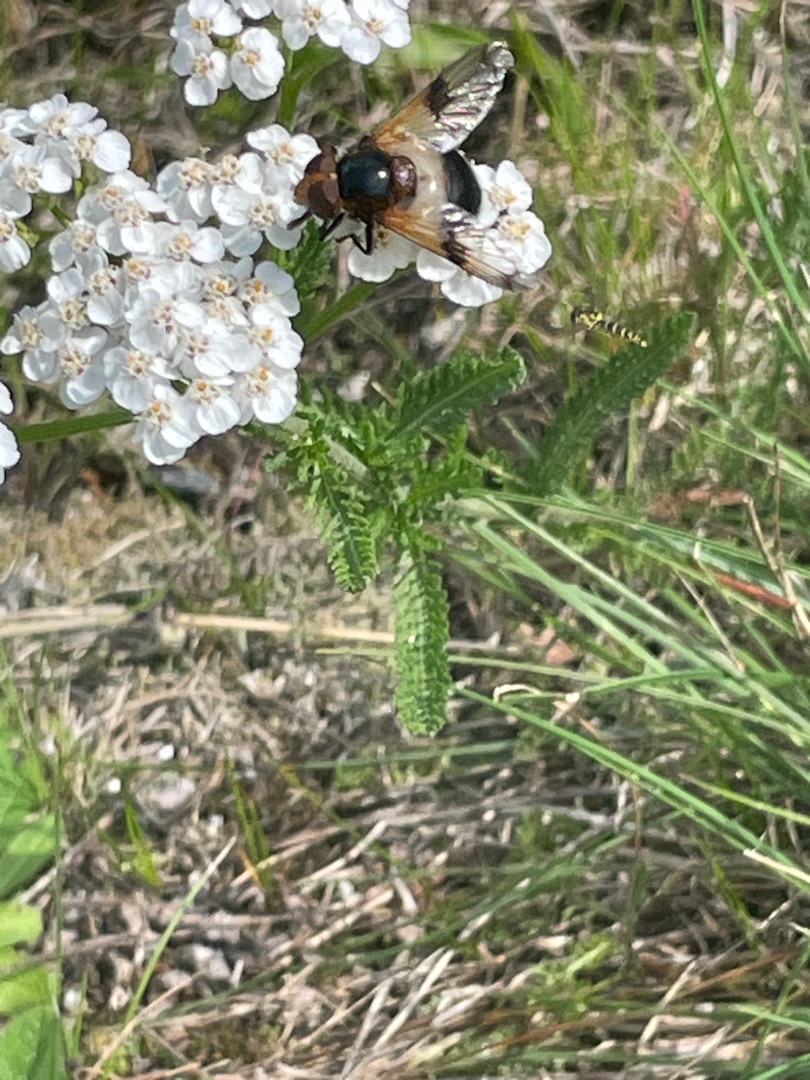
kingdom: Animalia
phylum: Arthropoda
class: Insecta
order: Diptera
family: Syrphidae
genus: Volucella
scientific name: Volucella pellucens
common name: Hvidbåndet humlesvirreflue
